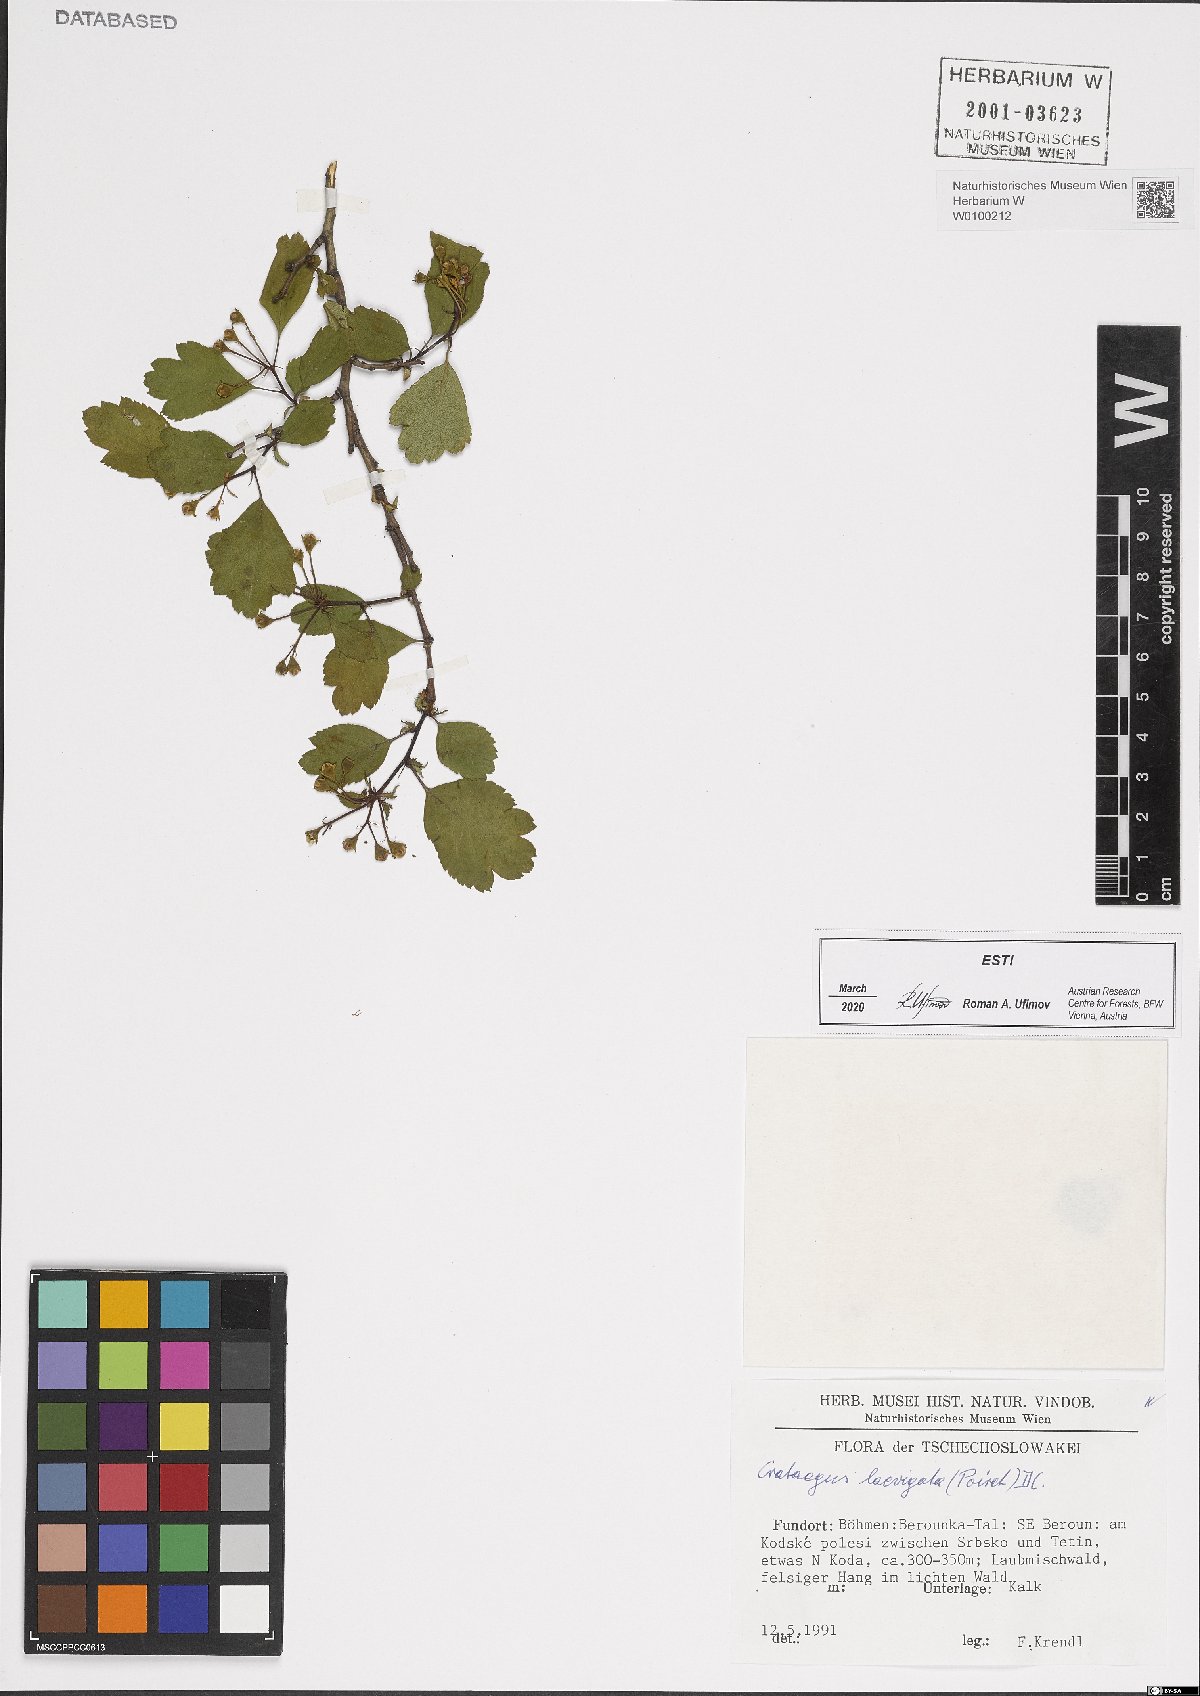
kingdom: Plantae
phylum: Tracheophyta
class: Magnoliopsida
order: Rosales
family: Rosaceae
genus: Crataegus
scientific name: Crataegus laevigata
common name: Midland hawthorn
